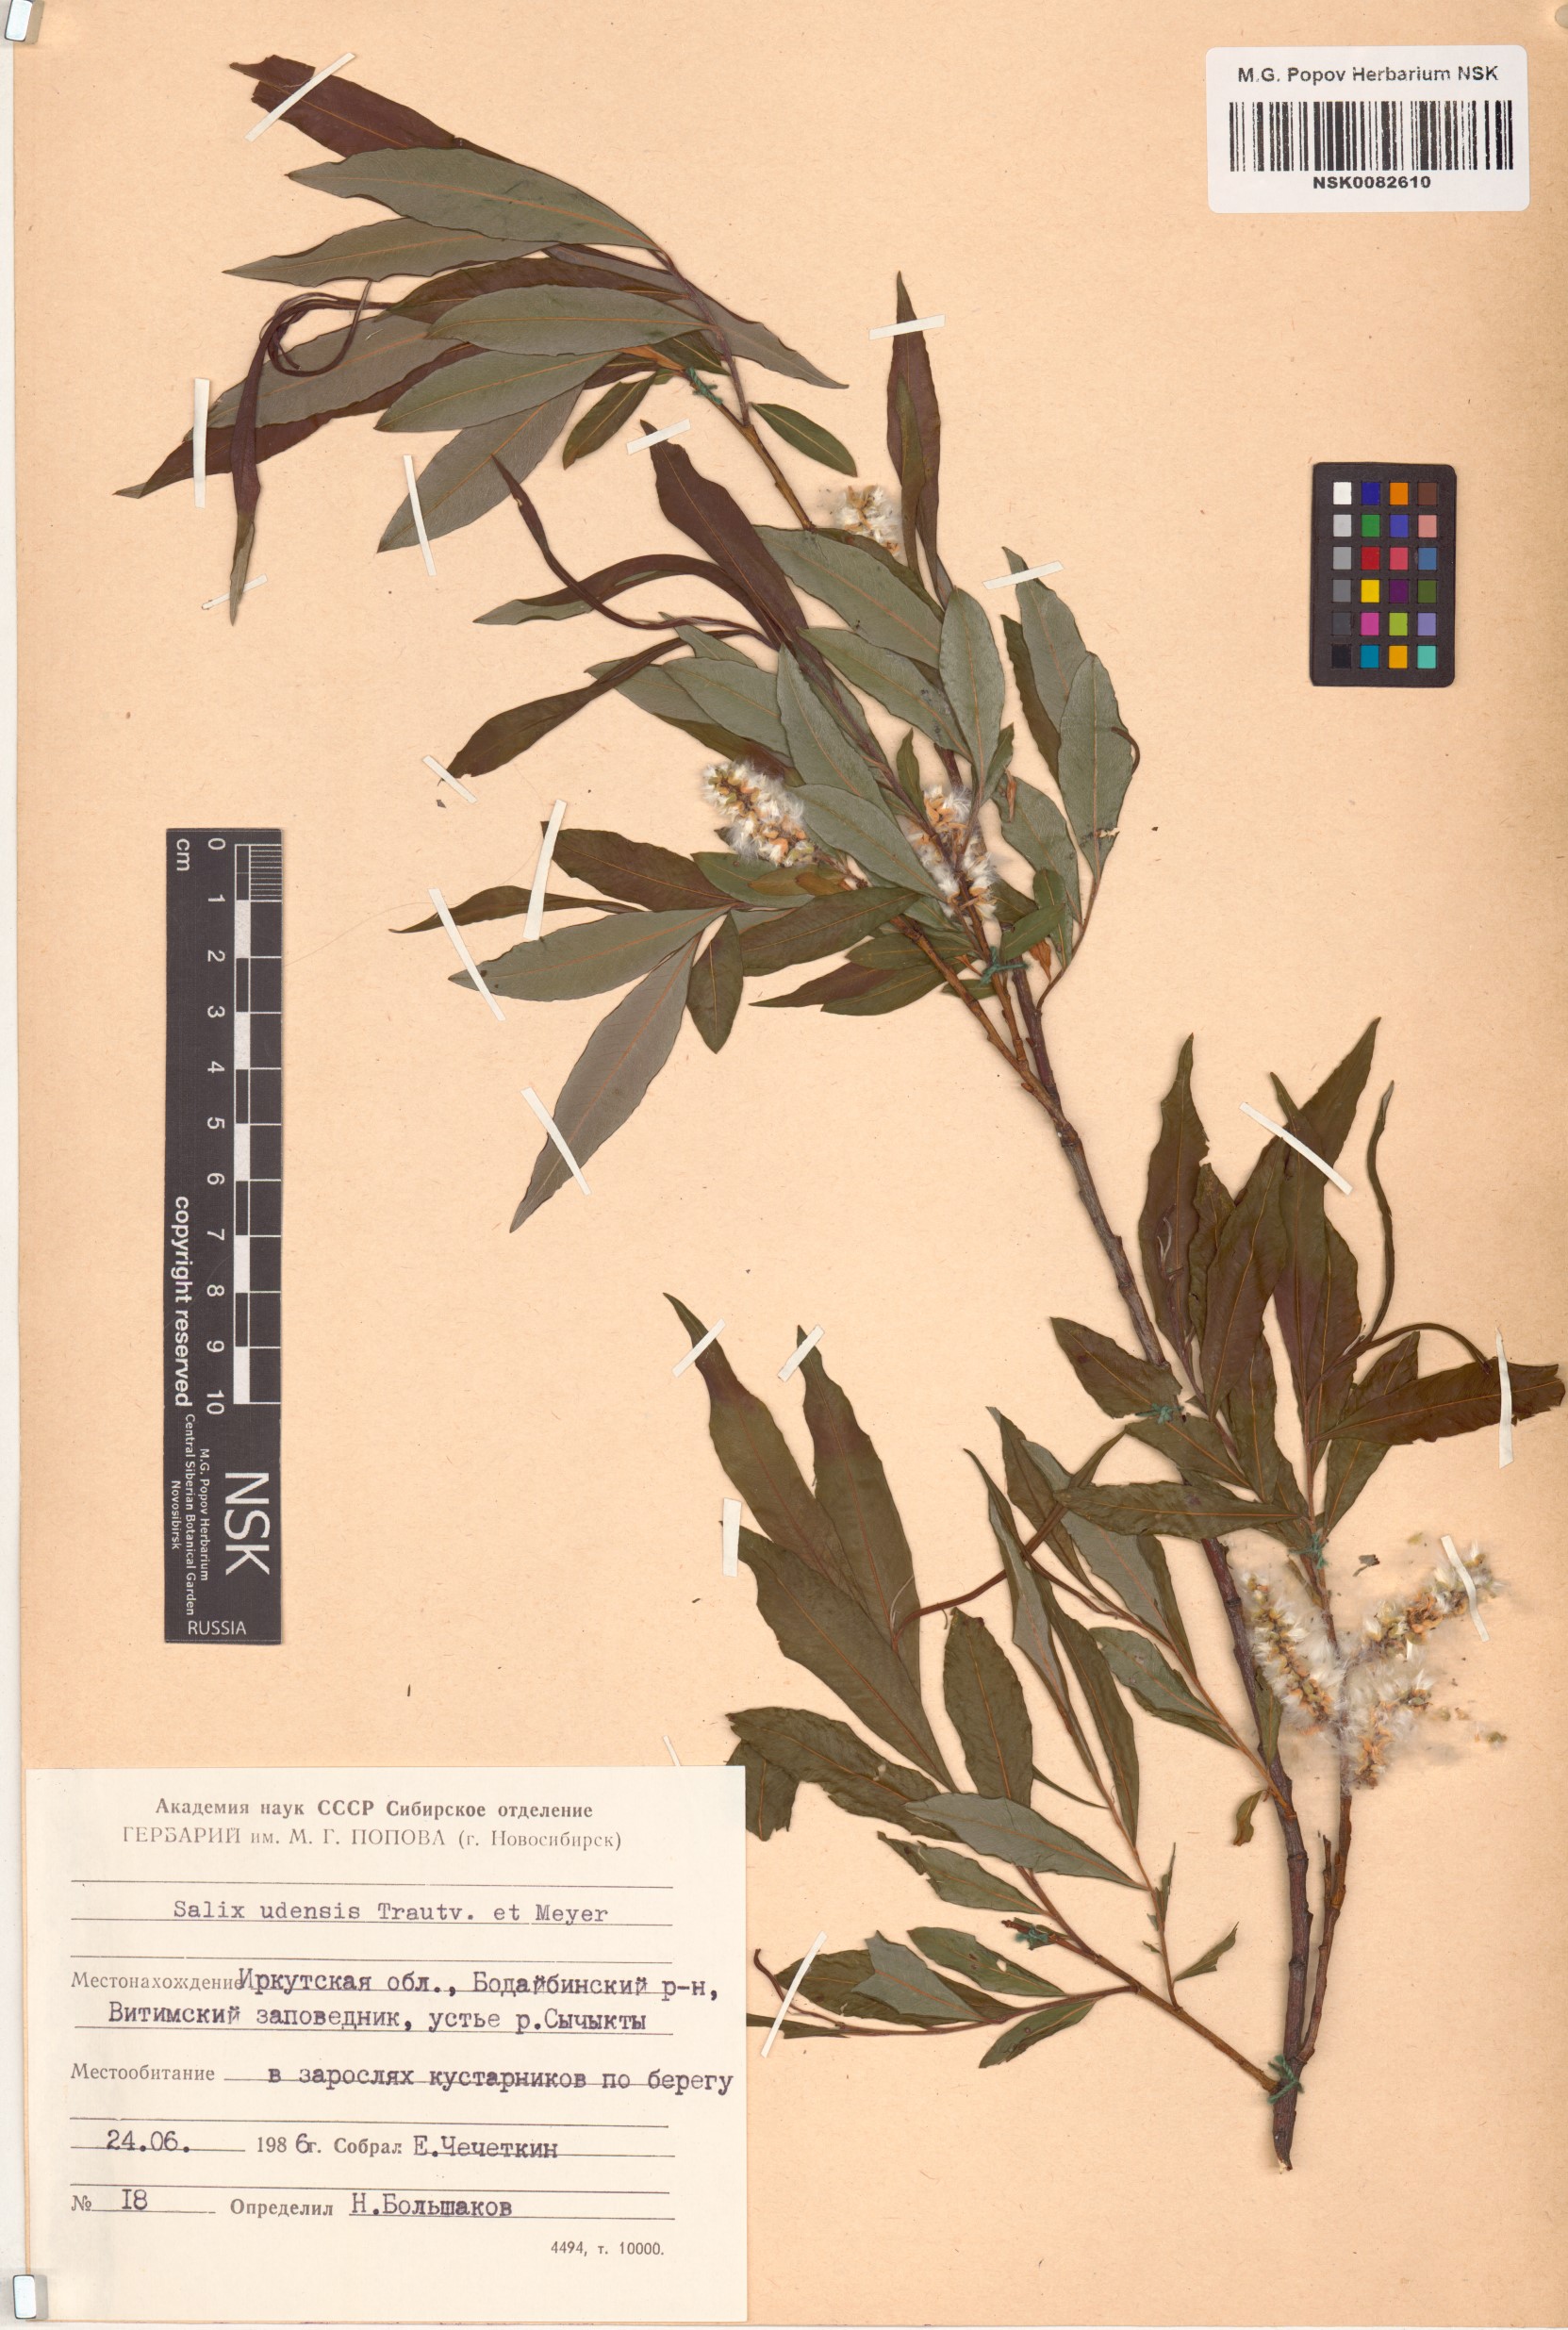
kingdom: Plantae
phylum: Tracheophyta
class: Magnoliopsida
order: Malpighiales
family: Salicaceae
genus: Salix
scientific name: Salix udensis
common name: Sachalin willow
